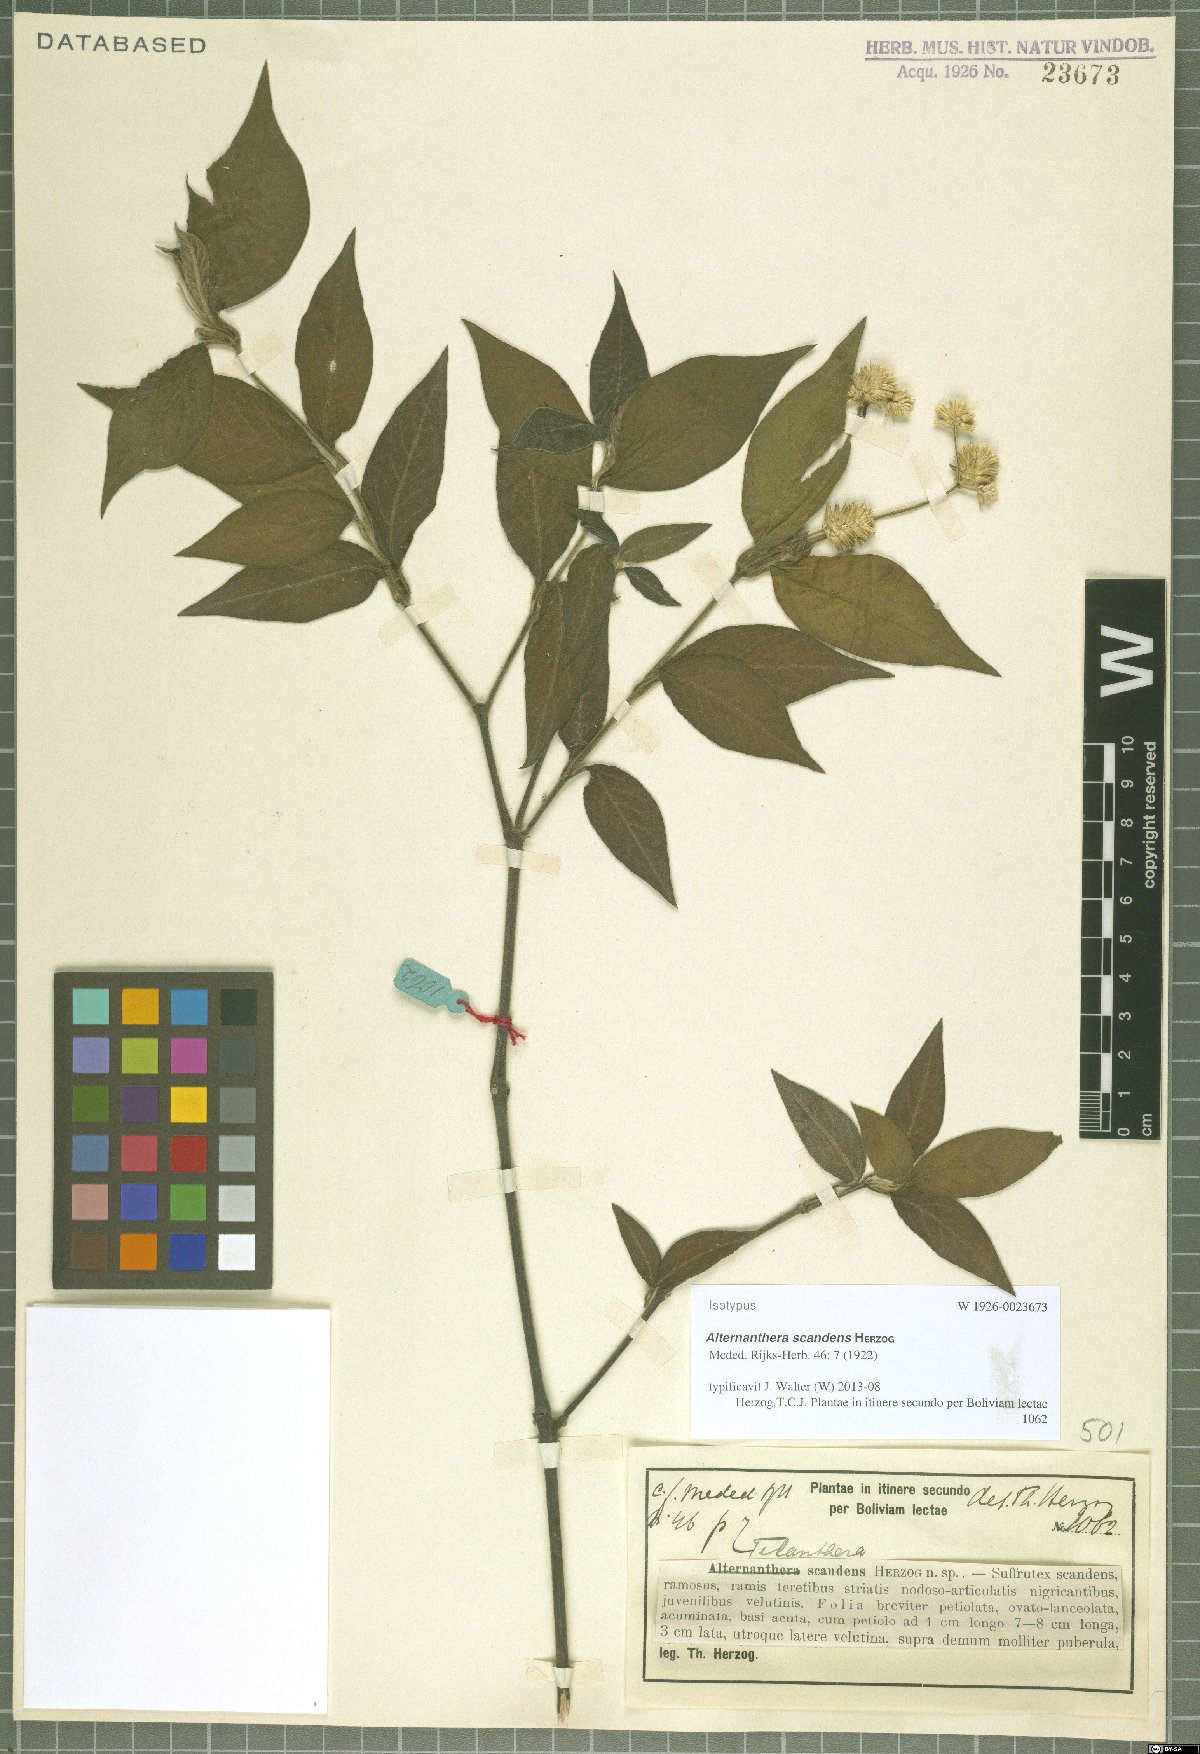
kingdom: Plantae
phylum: Tracheophyta
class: Magnoliopsida
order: Caryophyllales
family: Amaranthaceae
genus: Alternanthera
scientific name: Alternanthera scandens
